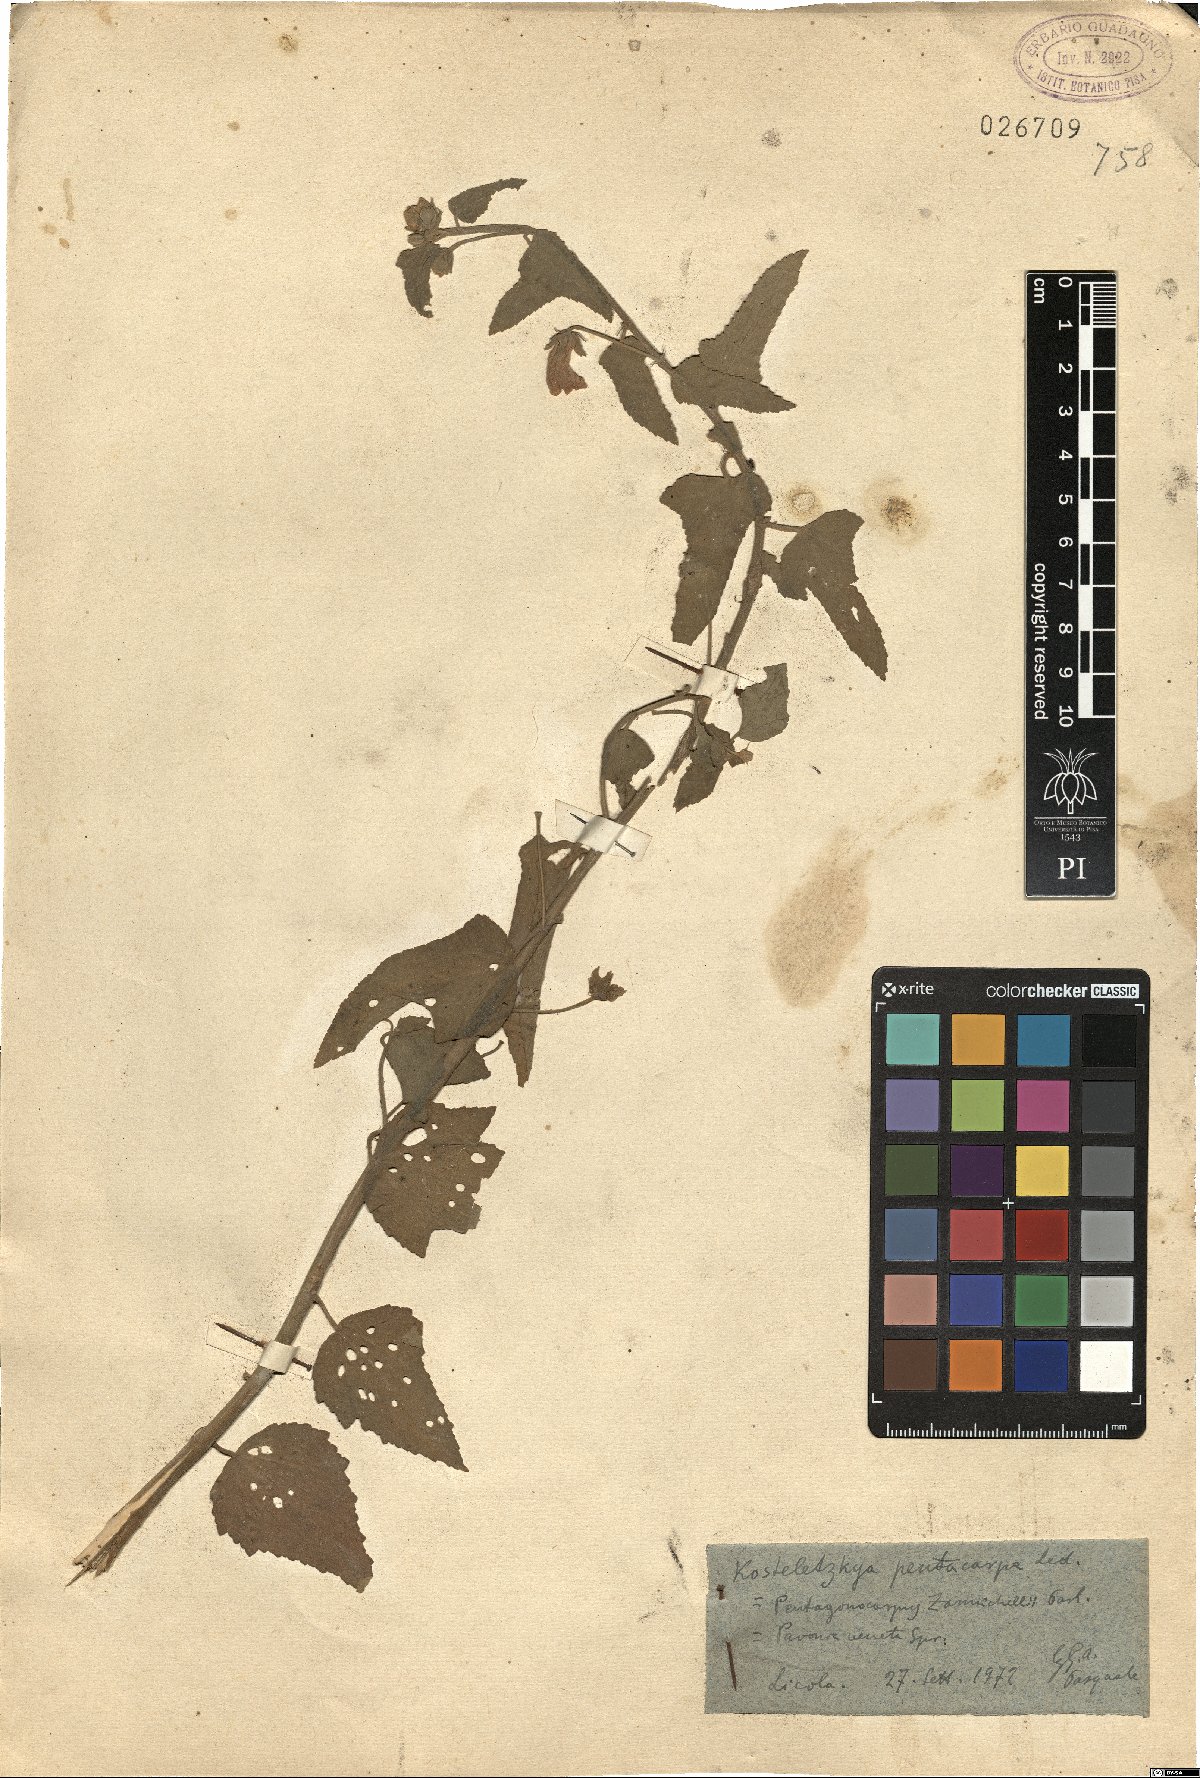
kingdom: Plantae
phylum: Tracheophyta
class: Magnoliopsida
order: Malvales
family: Malvaceae
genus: Kosteletzkya
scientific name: Kosteletzkya pentacarpos
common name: Virginia saltmarsh mallow
